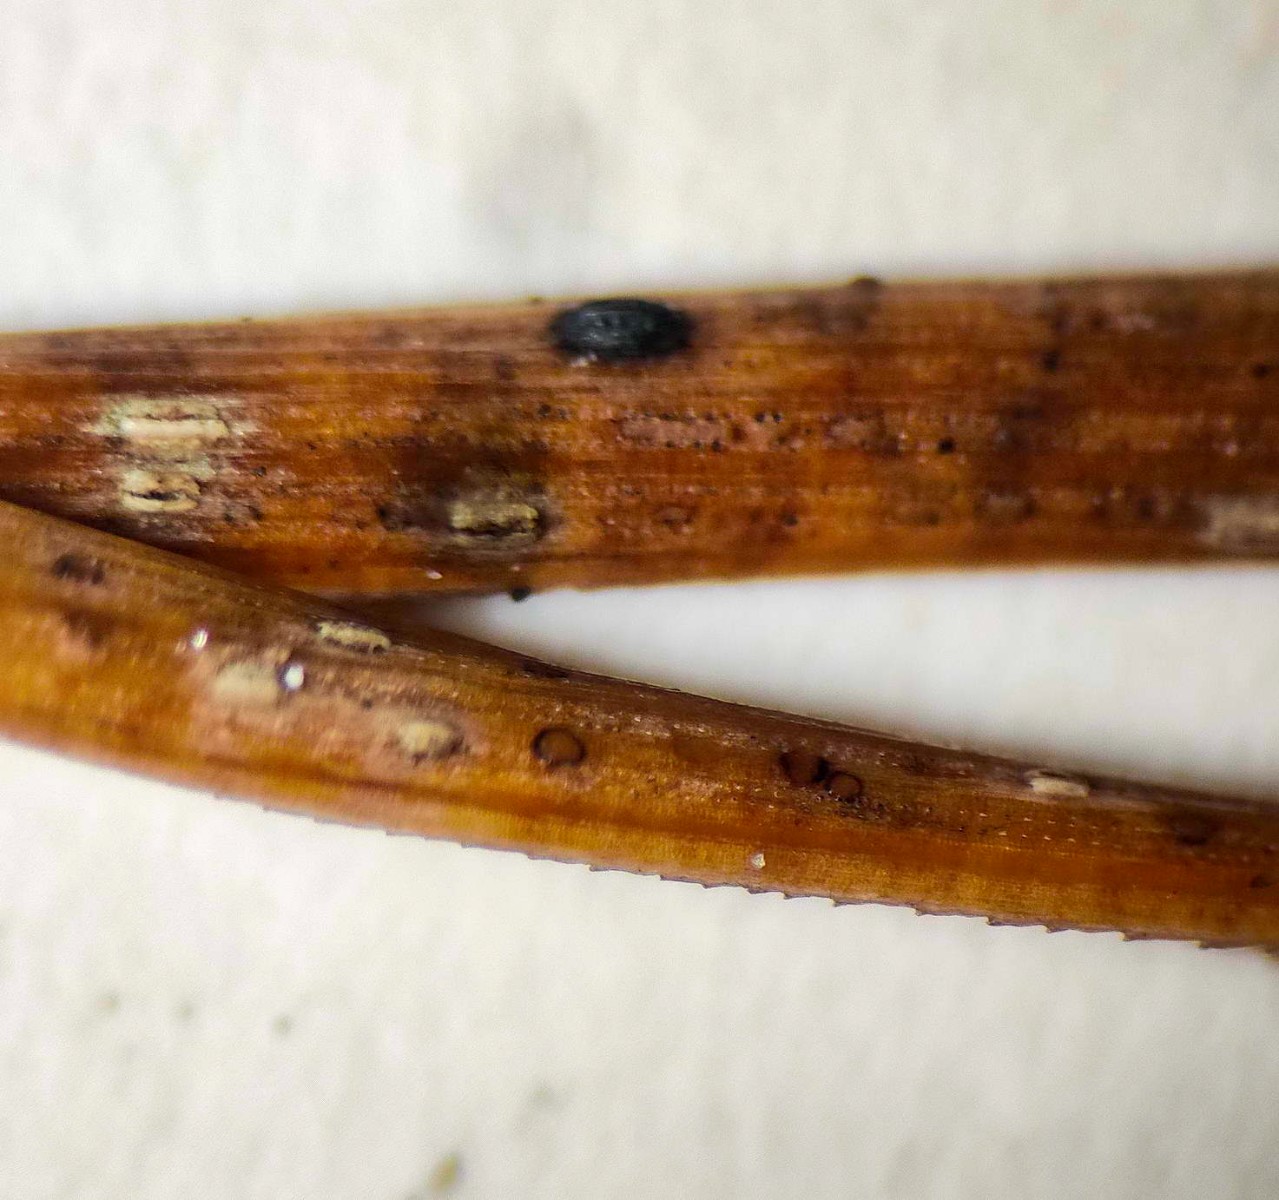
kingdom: Fungi
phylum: Ascomycota
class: Leotiomycetes
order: Chaetomellales
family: Marthamycetaceae
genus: Cyclaneusma
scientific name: Cyclaneusma minus
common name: tofliget nåleskive
